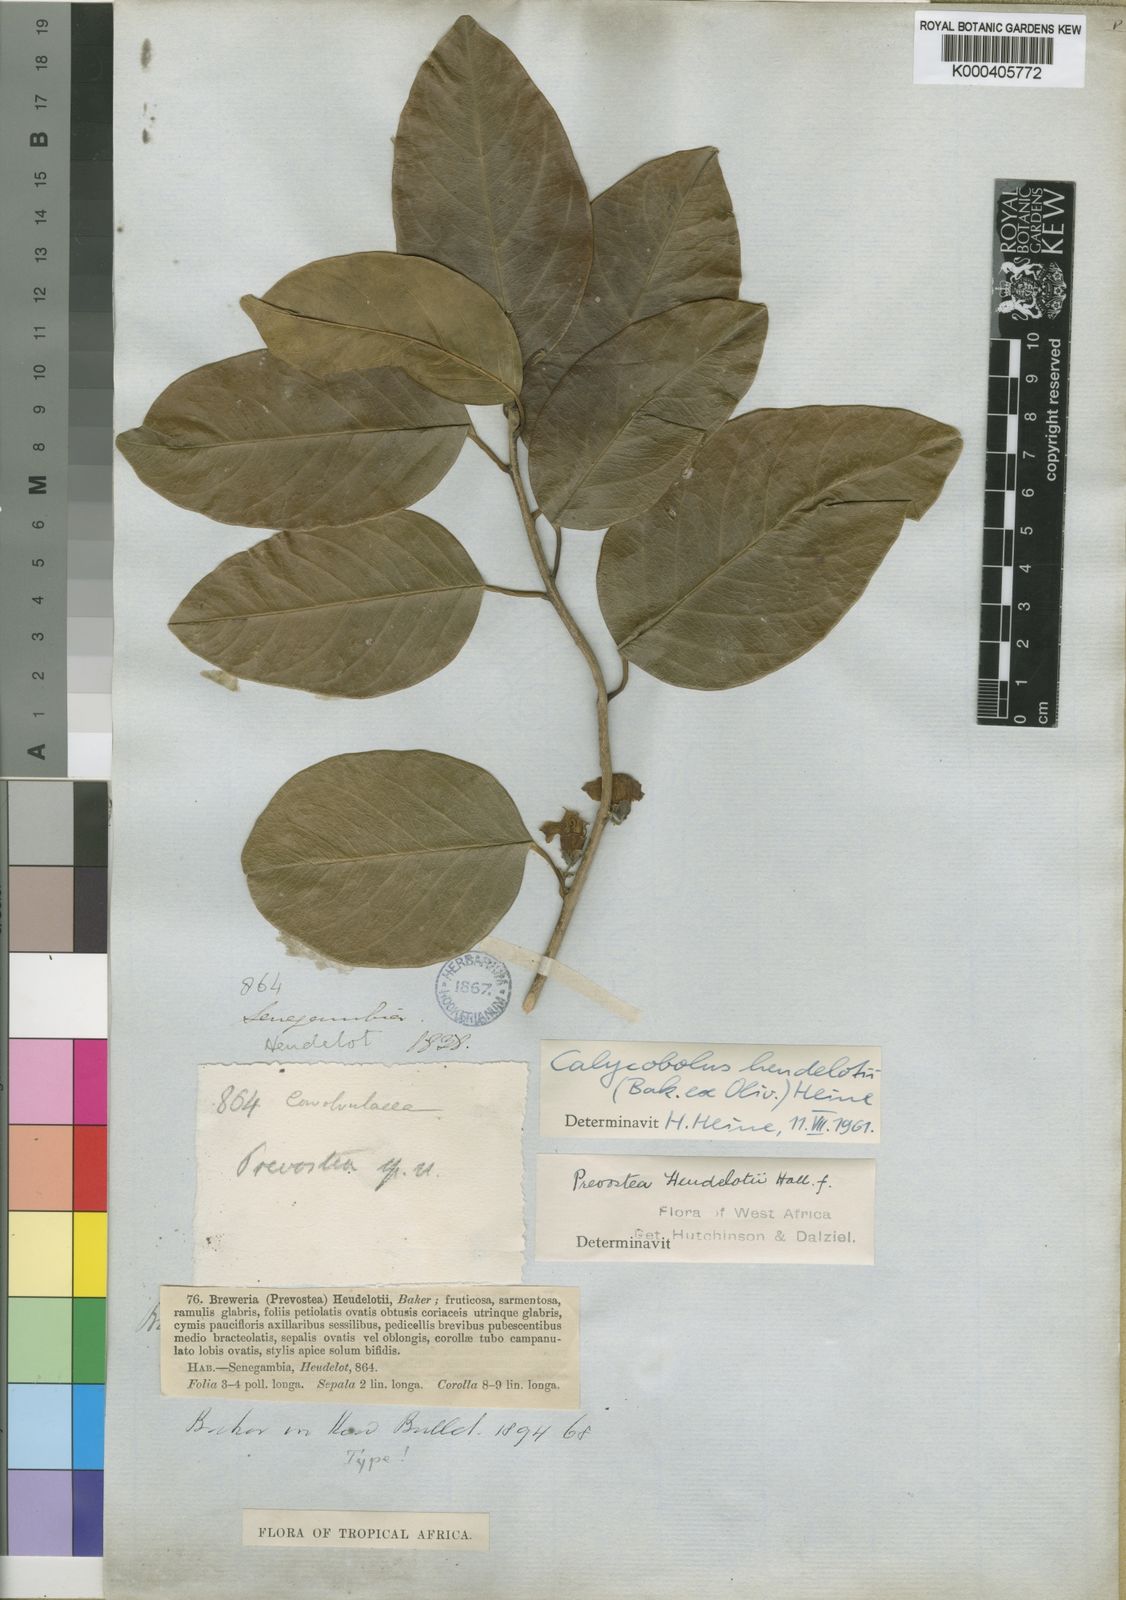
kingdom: Plantae
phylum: Tracheophyta
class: Magnoliopsida
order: Solanales
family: Convolvulaceae
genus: Calycobolus
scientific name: Calycobolus heudelotii
